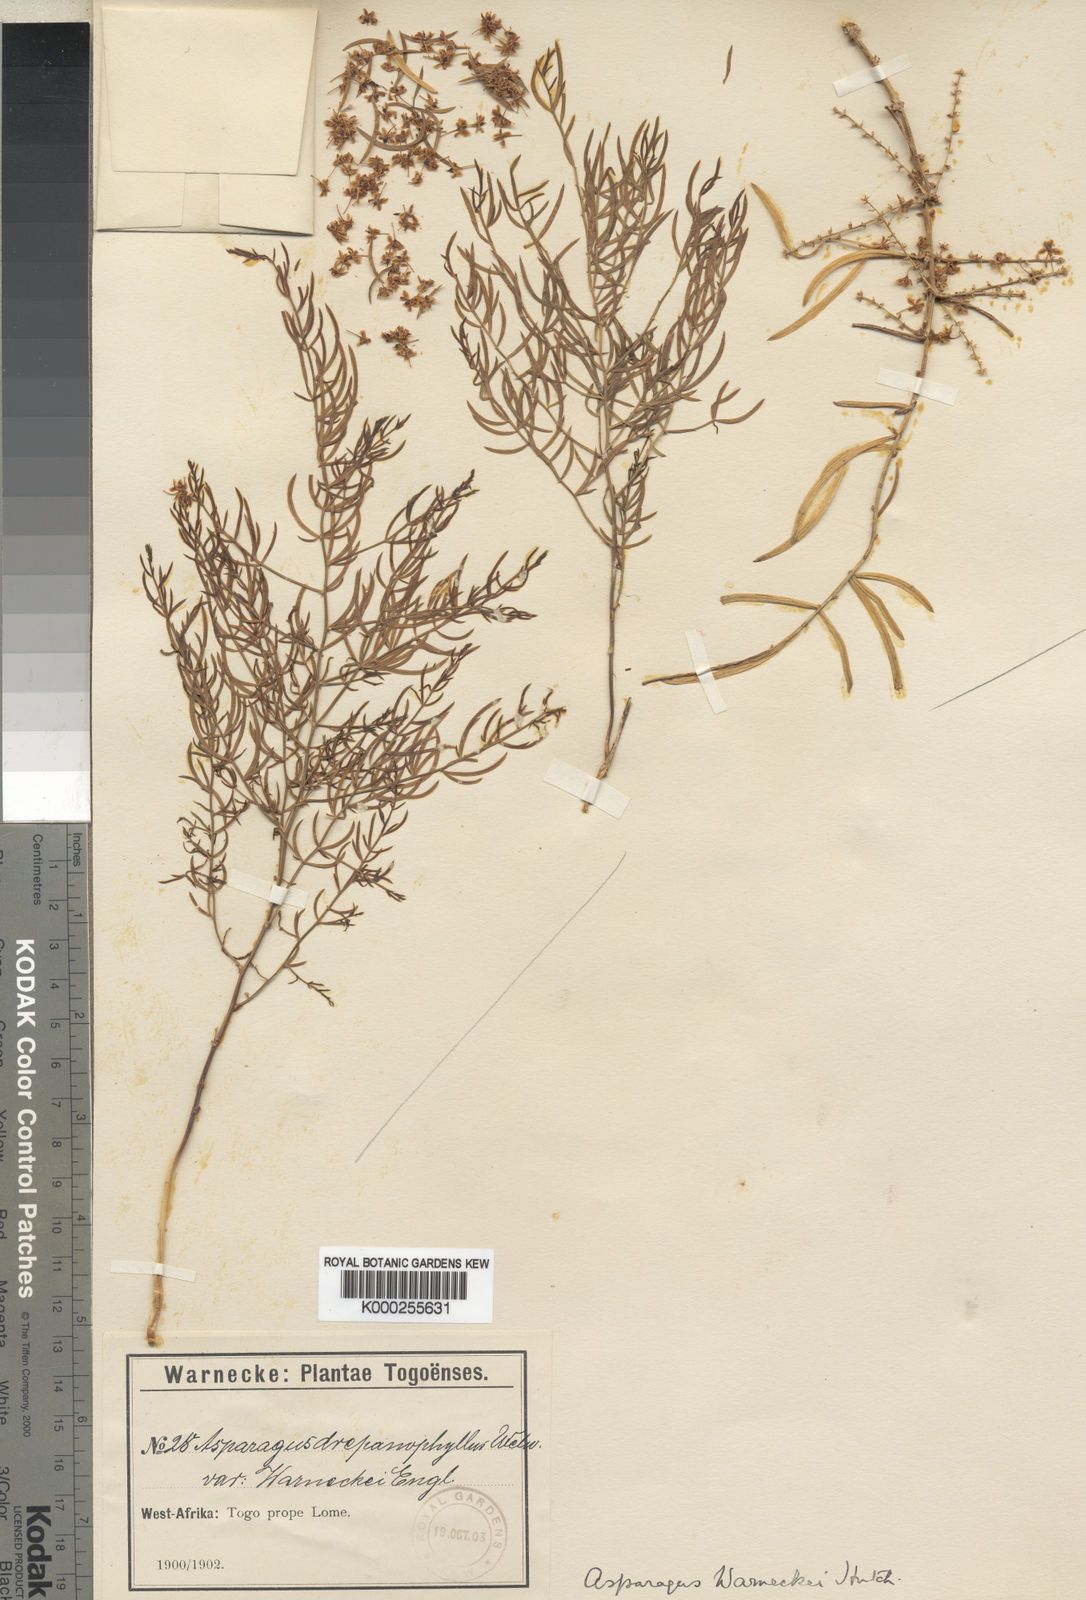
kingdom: Plantae
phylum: Tracheophyta
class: Liliopsida
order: Asparagales
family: Asparagaceae
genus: Asparagus
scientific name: Asparagus warneckei
